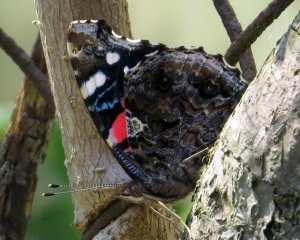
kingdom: Animalia
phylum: Arthropoda
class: Insecta
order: Lepidoptera
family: Nymphalidae
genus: Vanessa
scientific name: Vanessa atalanta
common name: Red Admiral
